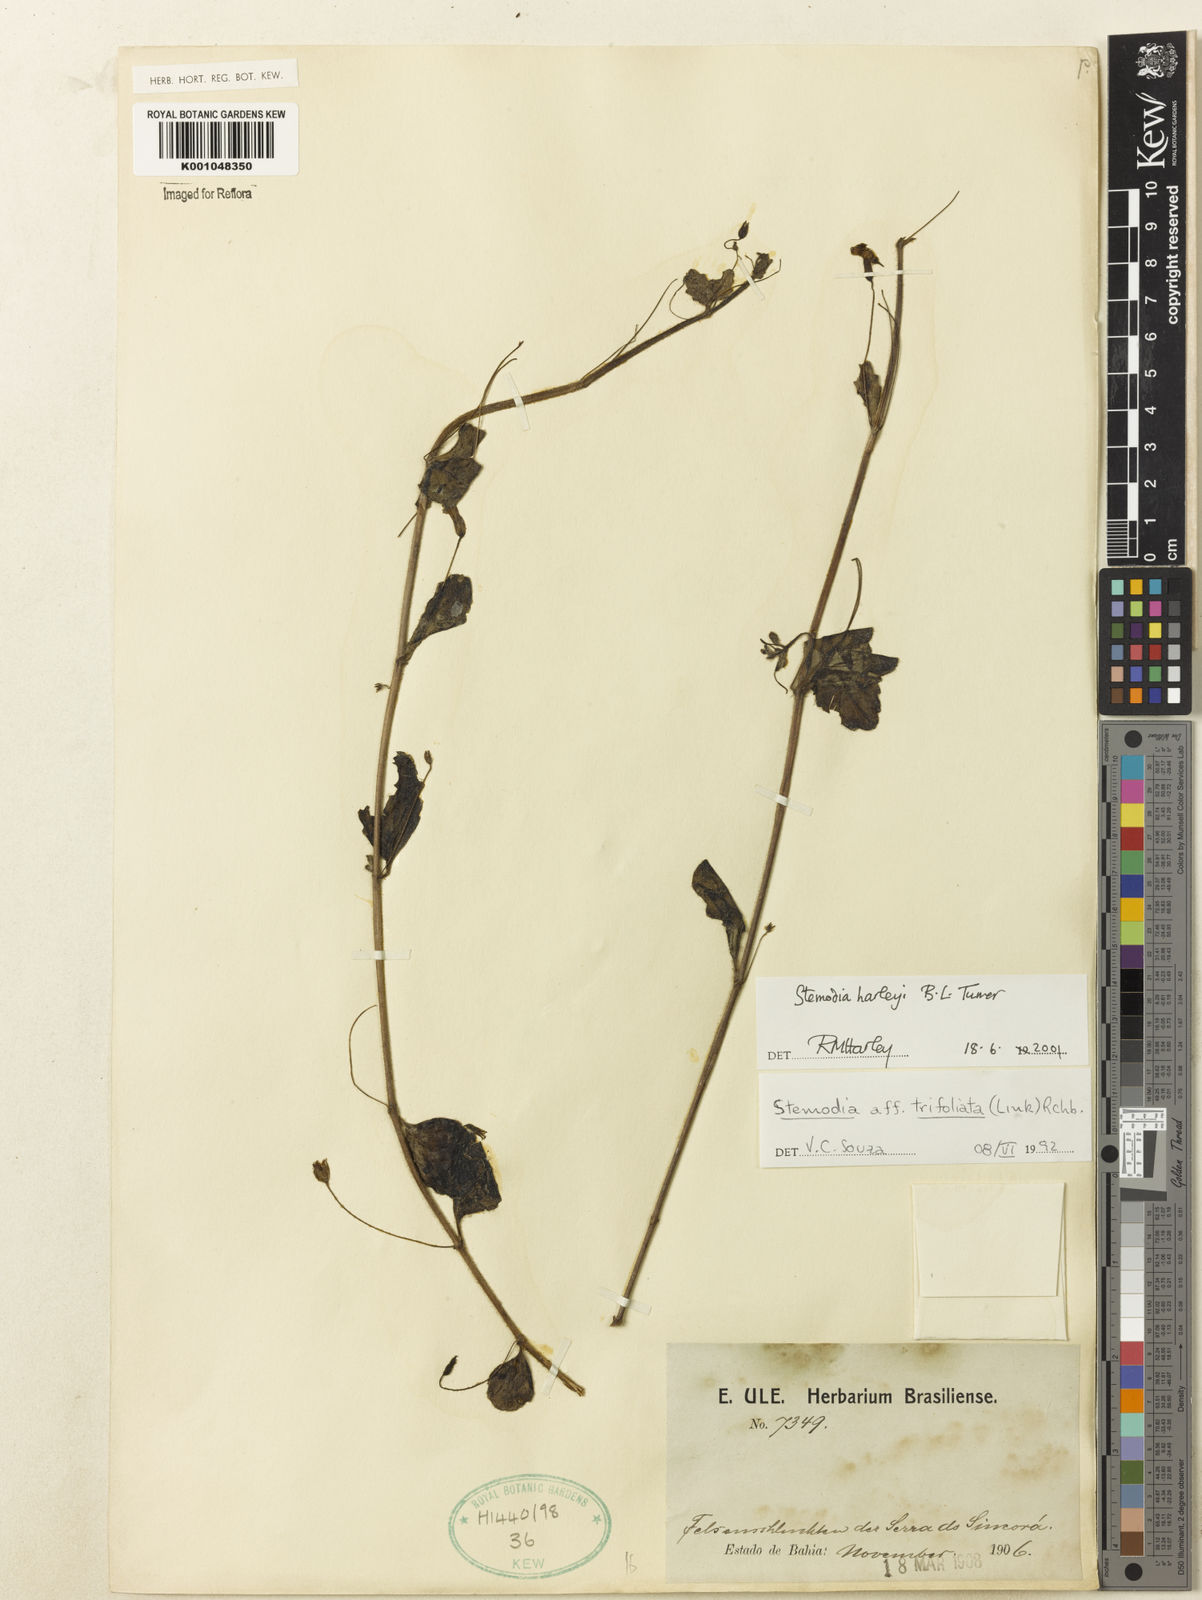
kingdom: Plantae
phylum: Tracheophyta
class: Magnoliopsida
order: Lamiales
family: Plantaginaceae
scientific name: Plantaginaceae
